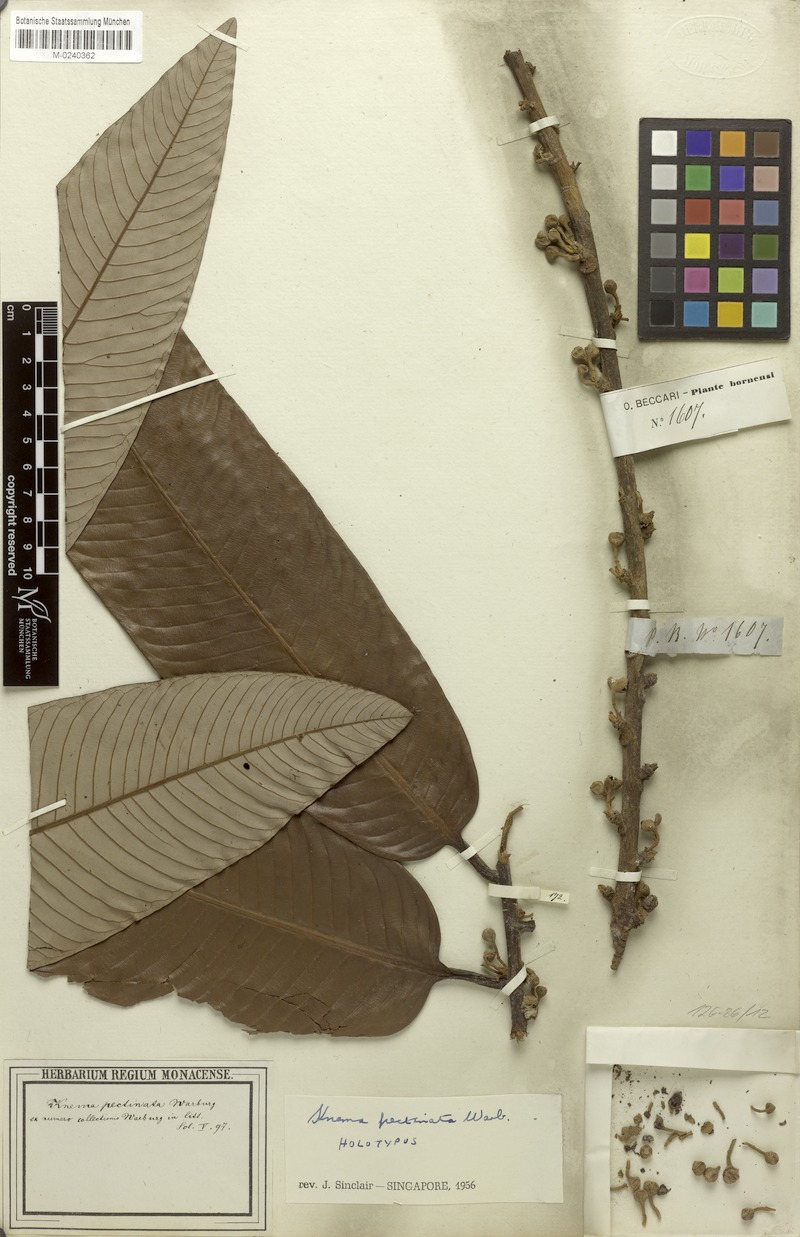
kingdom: Plantae
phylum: Tracheophyta
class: Magnoliopsida
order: Magnoliales
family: Myristicaceae
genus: Knema
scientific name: Knema pectinata
